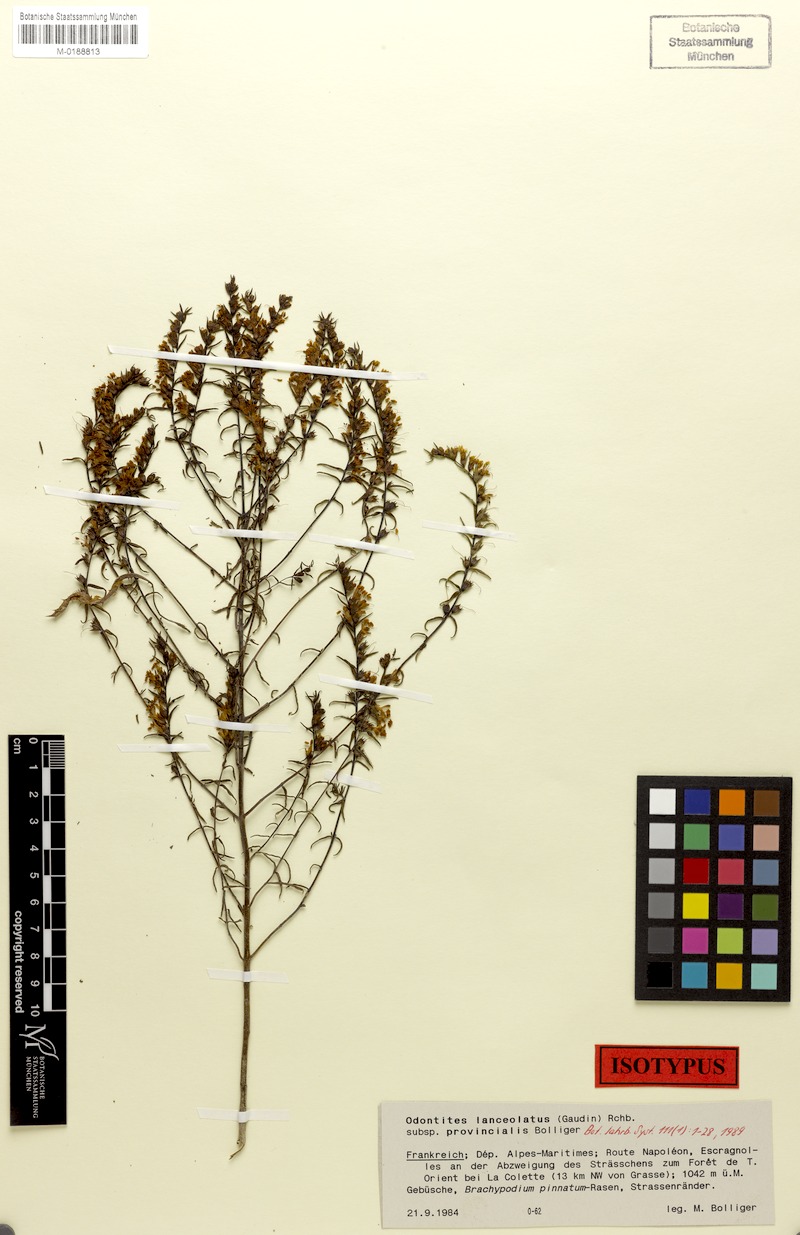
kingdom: Plantae
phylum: Tracheophyta
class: Magnoliopsida
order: Lamiales
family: Orobanchaceae
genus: Odontites
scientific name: Odontites lanceolatus
